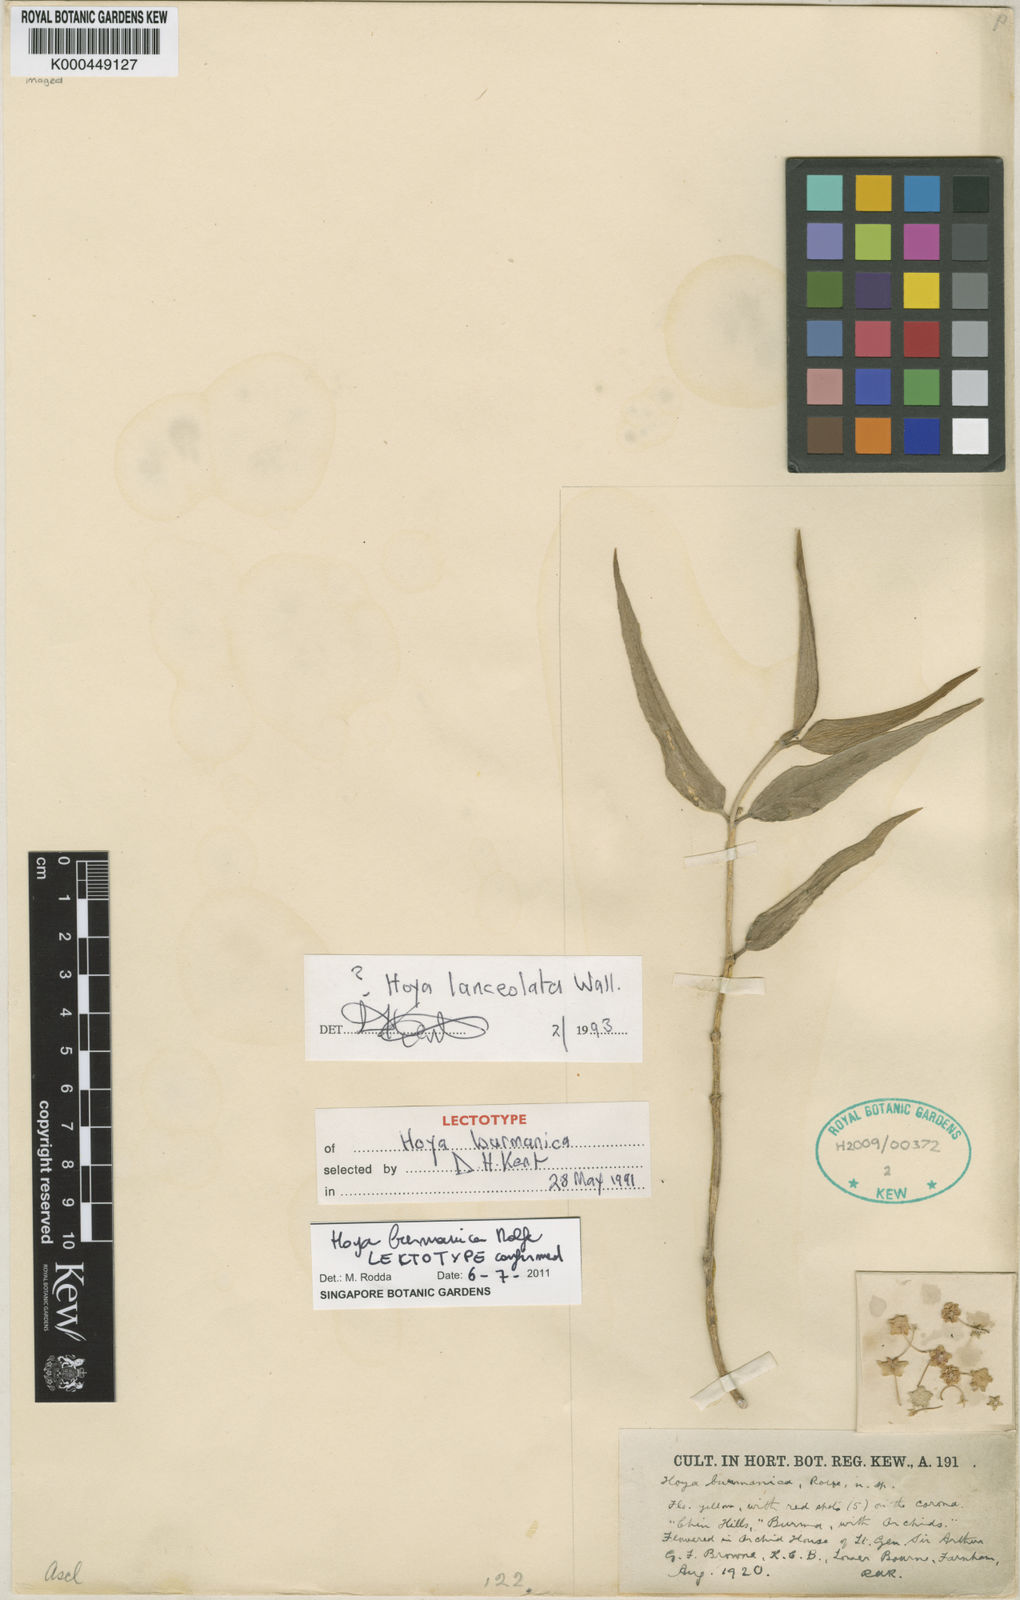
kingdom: Plantae
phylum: Tracheophyta
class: Magnoliopsida
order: Gentianales
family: Apocynaceae
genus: Hoya
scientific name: Hoya burmanica
